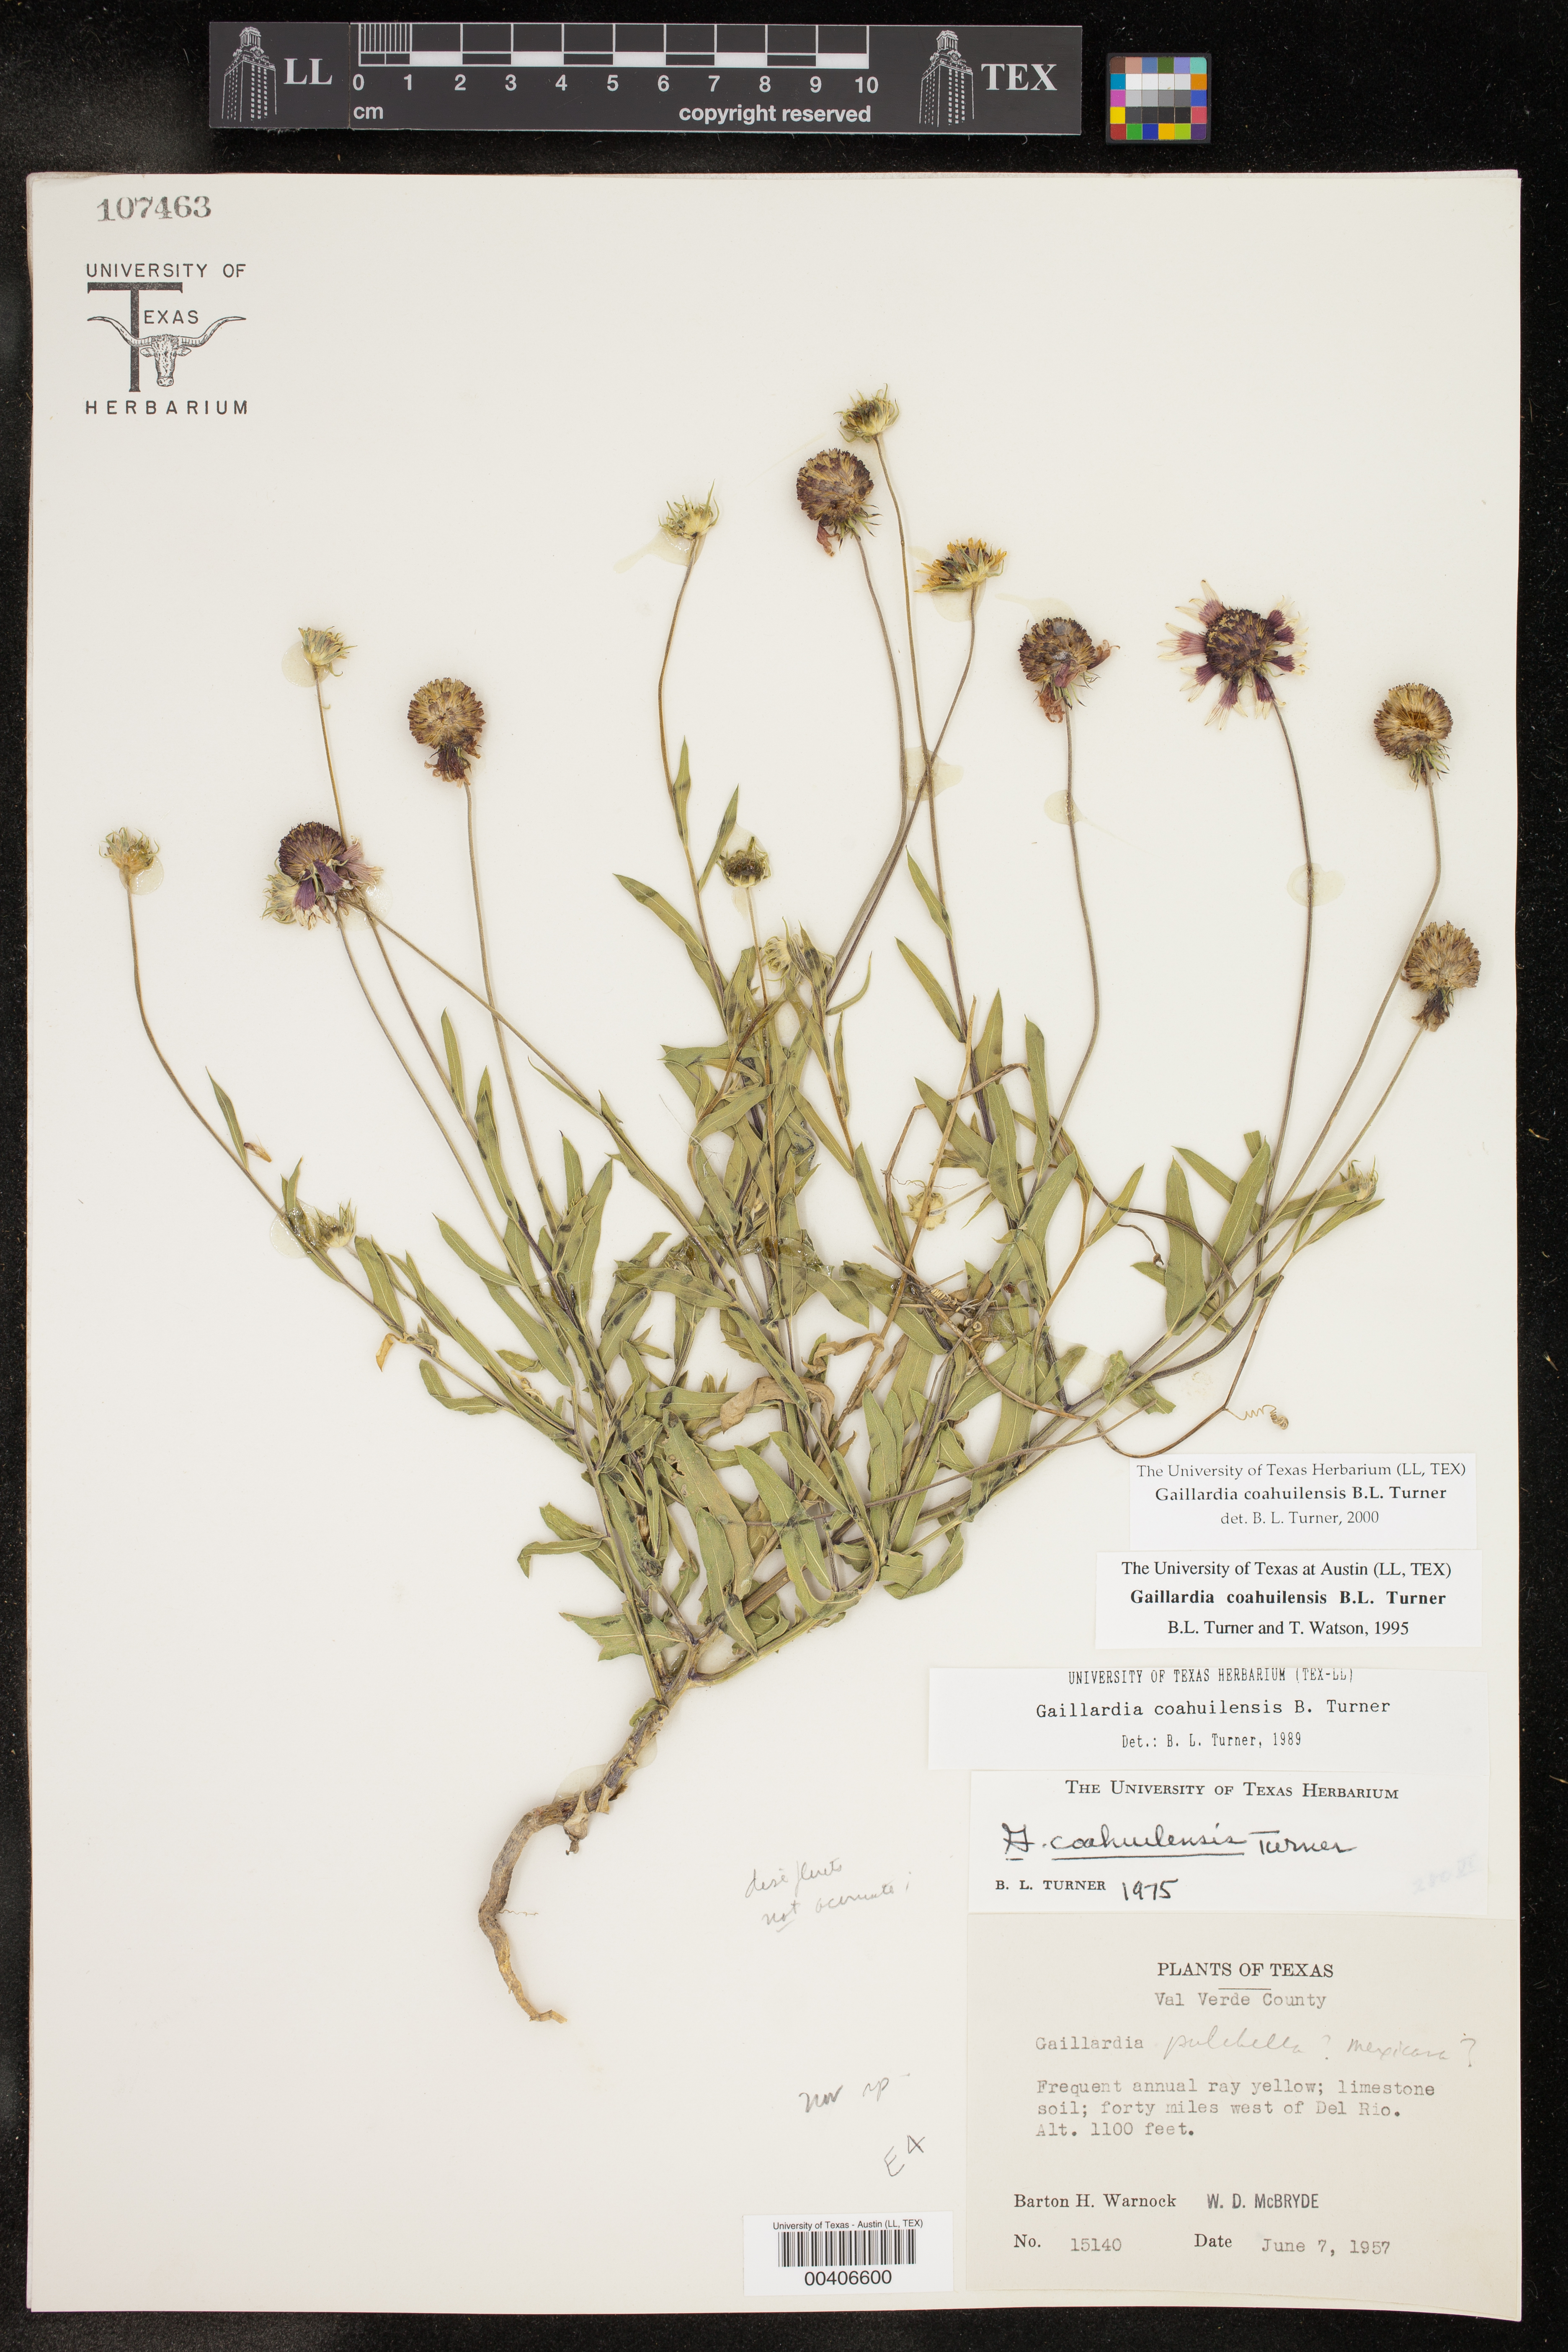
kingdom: Plantae
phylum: Tracheophyta
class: Magnoliopsida
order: Asterales
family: Asteraceae
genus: Gaillardia
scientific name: Gaillardia coahuilensis
